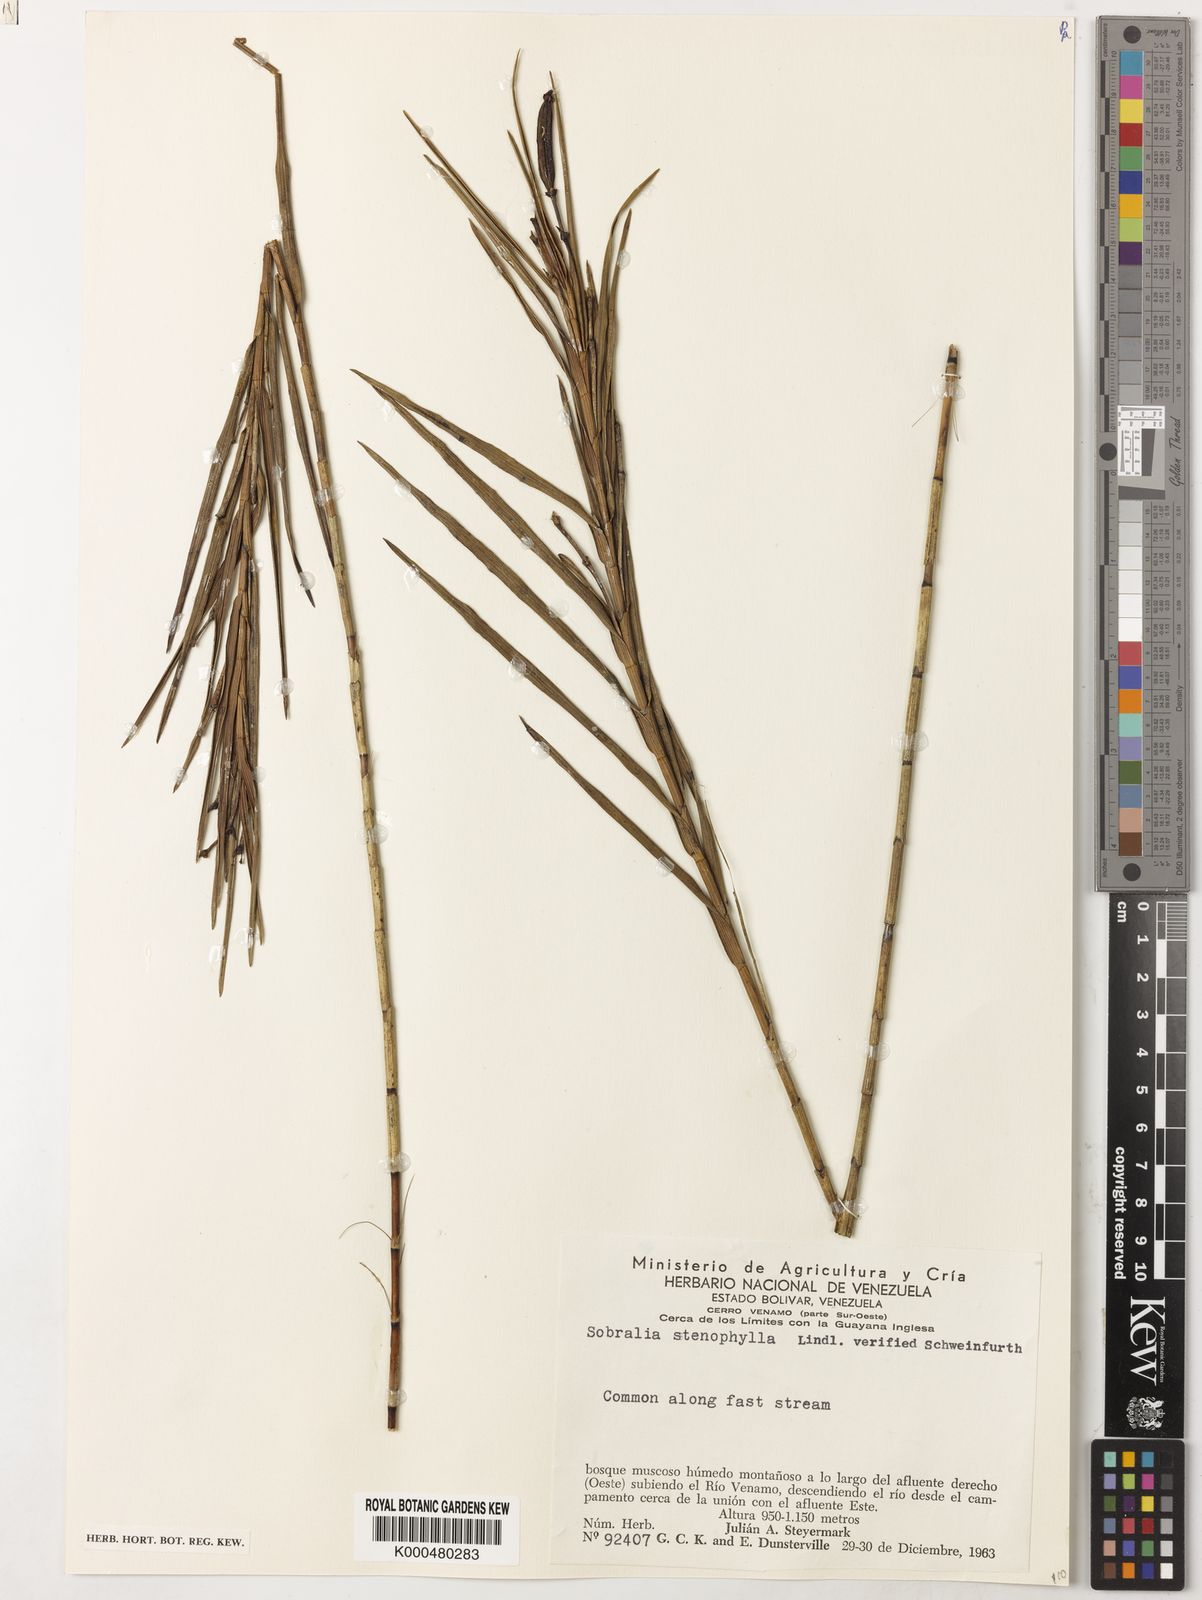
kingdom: Plantae
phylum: Tracheophyta
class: Liliopsida
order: Asparagales
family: Orchidaceae
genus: Sobralia
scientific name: Sobralia stenophylla
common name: Thin leafed sobralia
